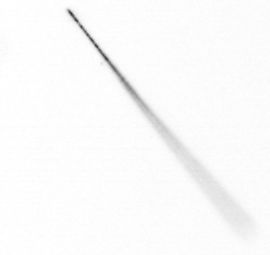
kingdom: Chromista
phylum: Ochrophyta
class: Bacillariophyceae
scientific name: Bacillariophyceae
